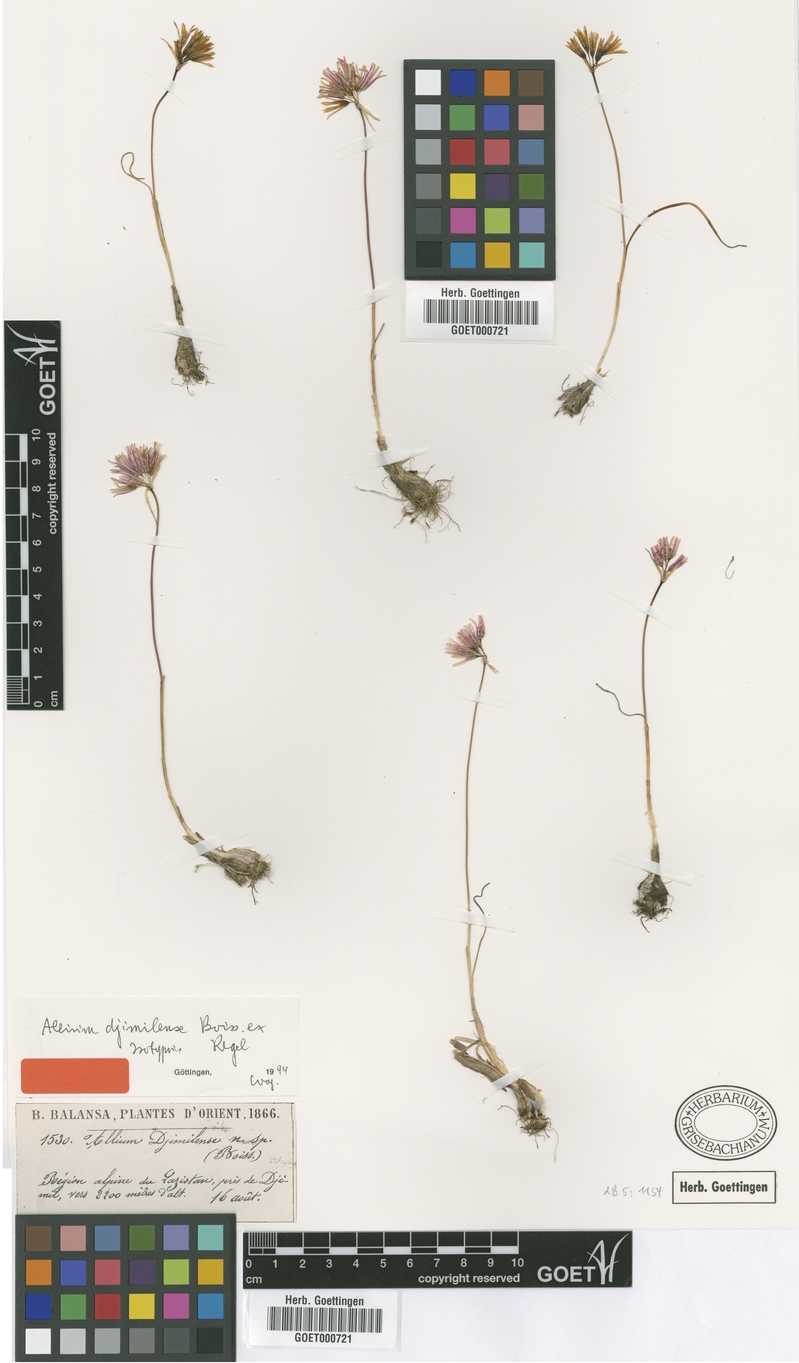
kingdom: Plantae
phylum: Tracheophyta
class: Liliopsida
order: Asparagales
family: Amaryllidaceae
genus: Allium
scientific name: Allium djimilense
